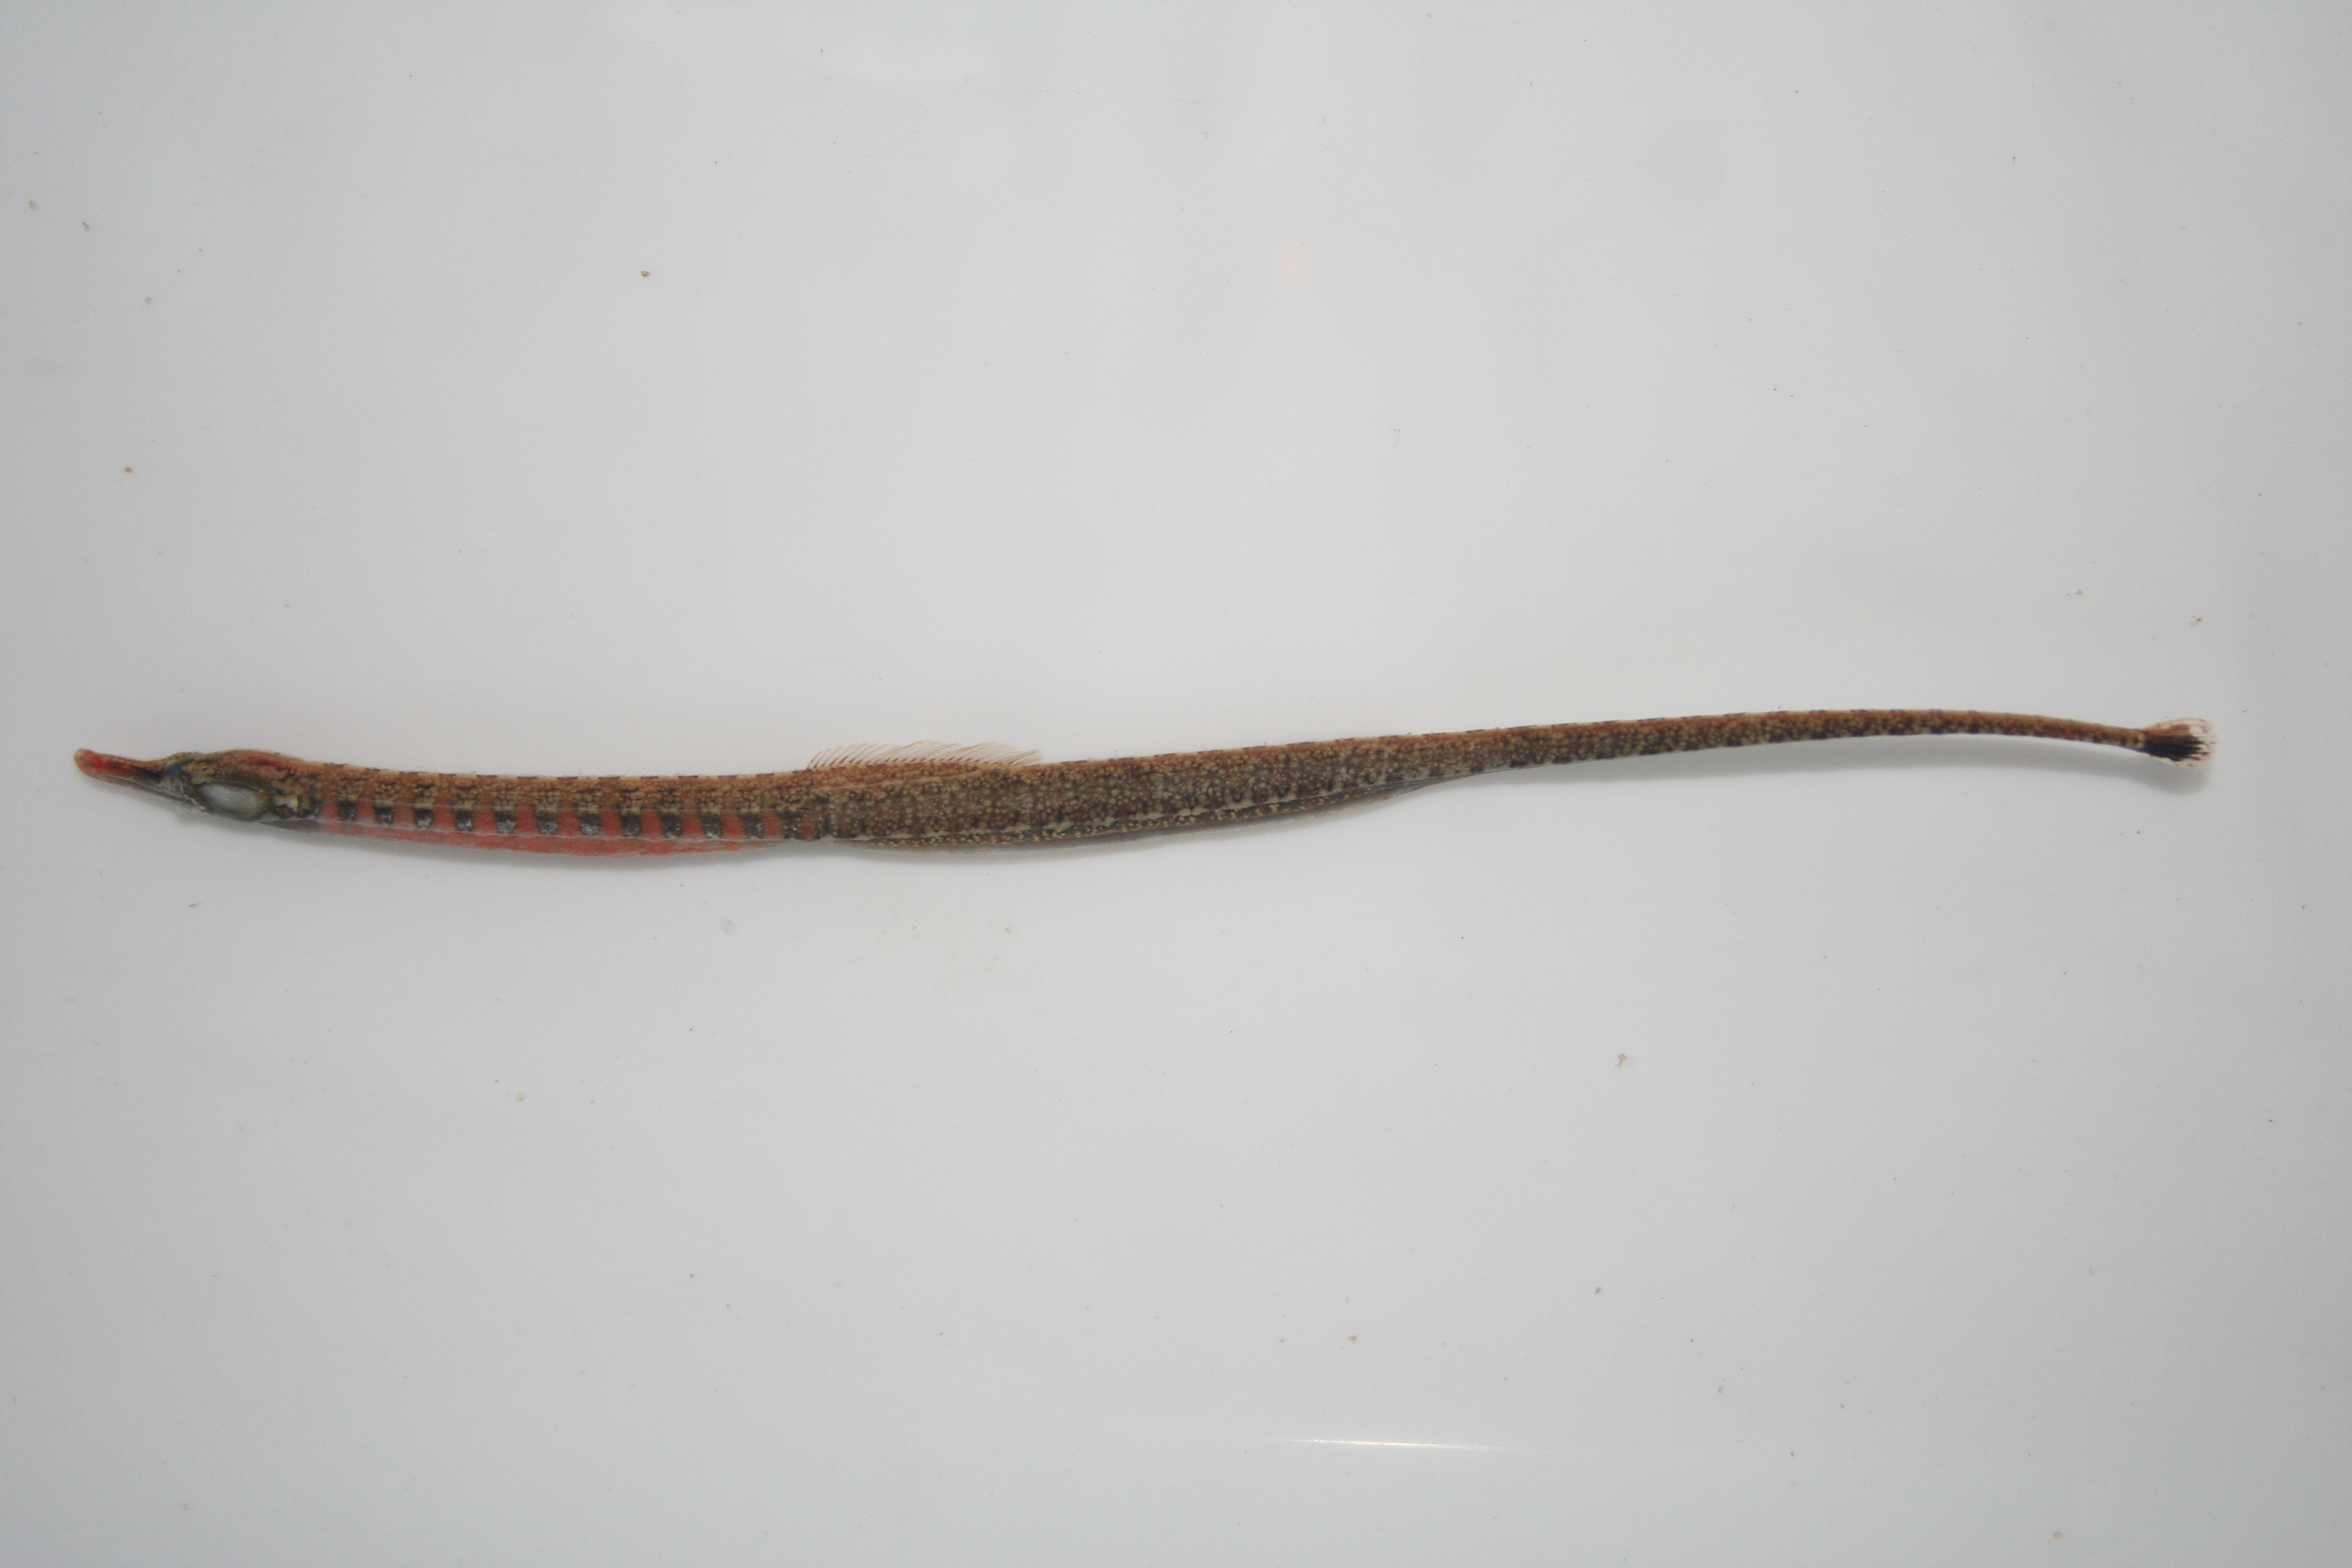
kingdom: Animalia
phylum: Chordata
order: Syngnathiformes
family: Syngnathidae
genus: Enneacampus
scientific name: Enneacampus ansorgii
